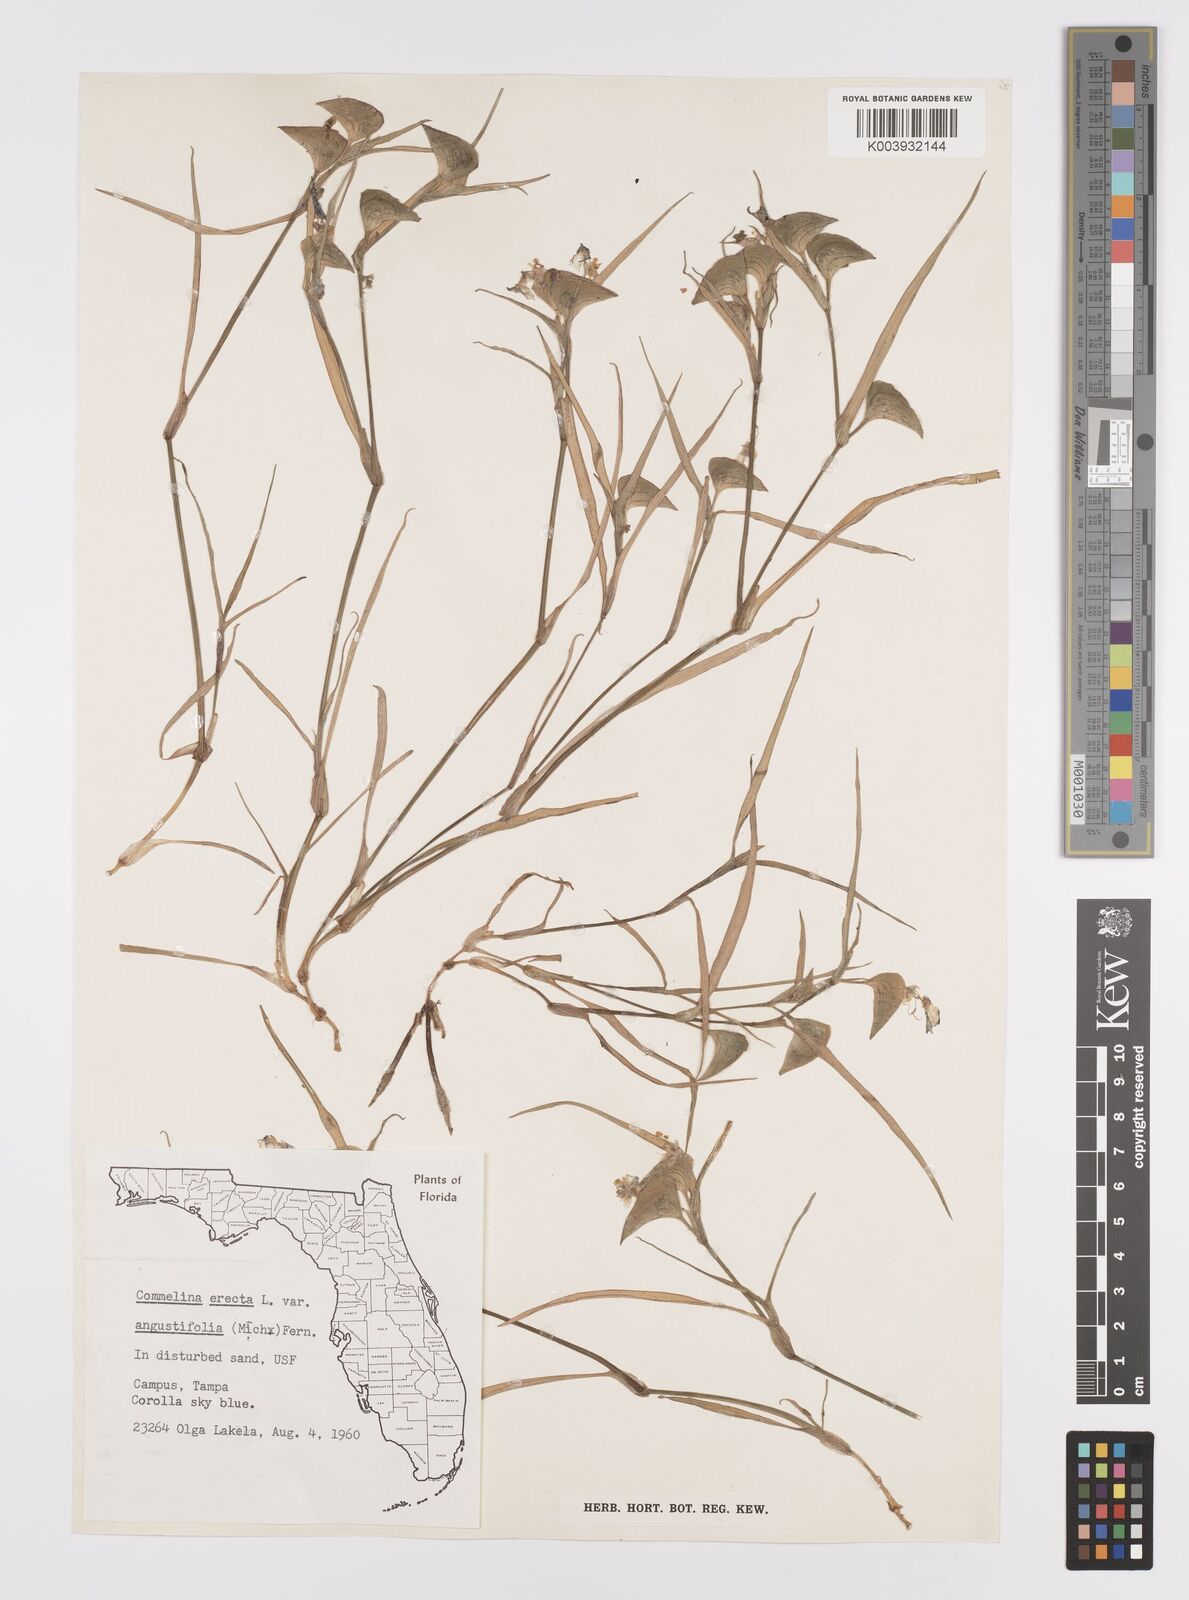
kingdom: Plantae
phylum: Tracheophyta
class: Liliopsida
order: Commelinales
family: Commelinaceae
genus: Commelina
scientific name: Commelina erecta
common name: Blousel blommetjie
